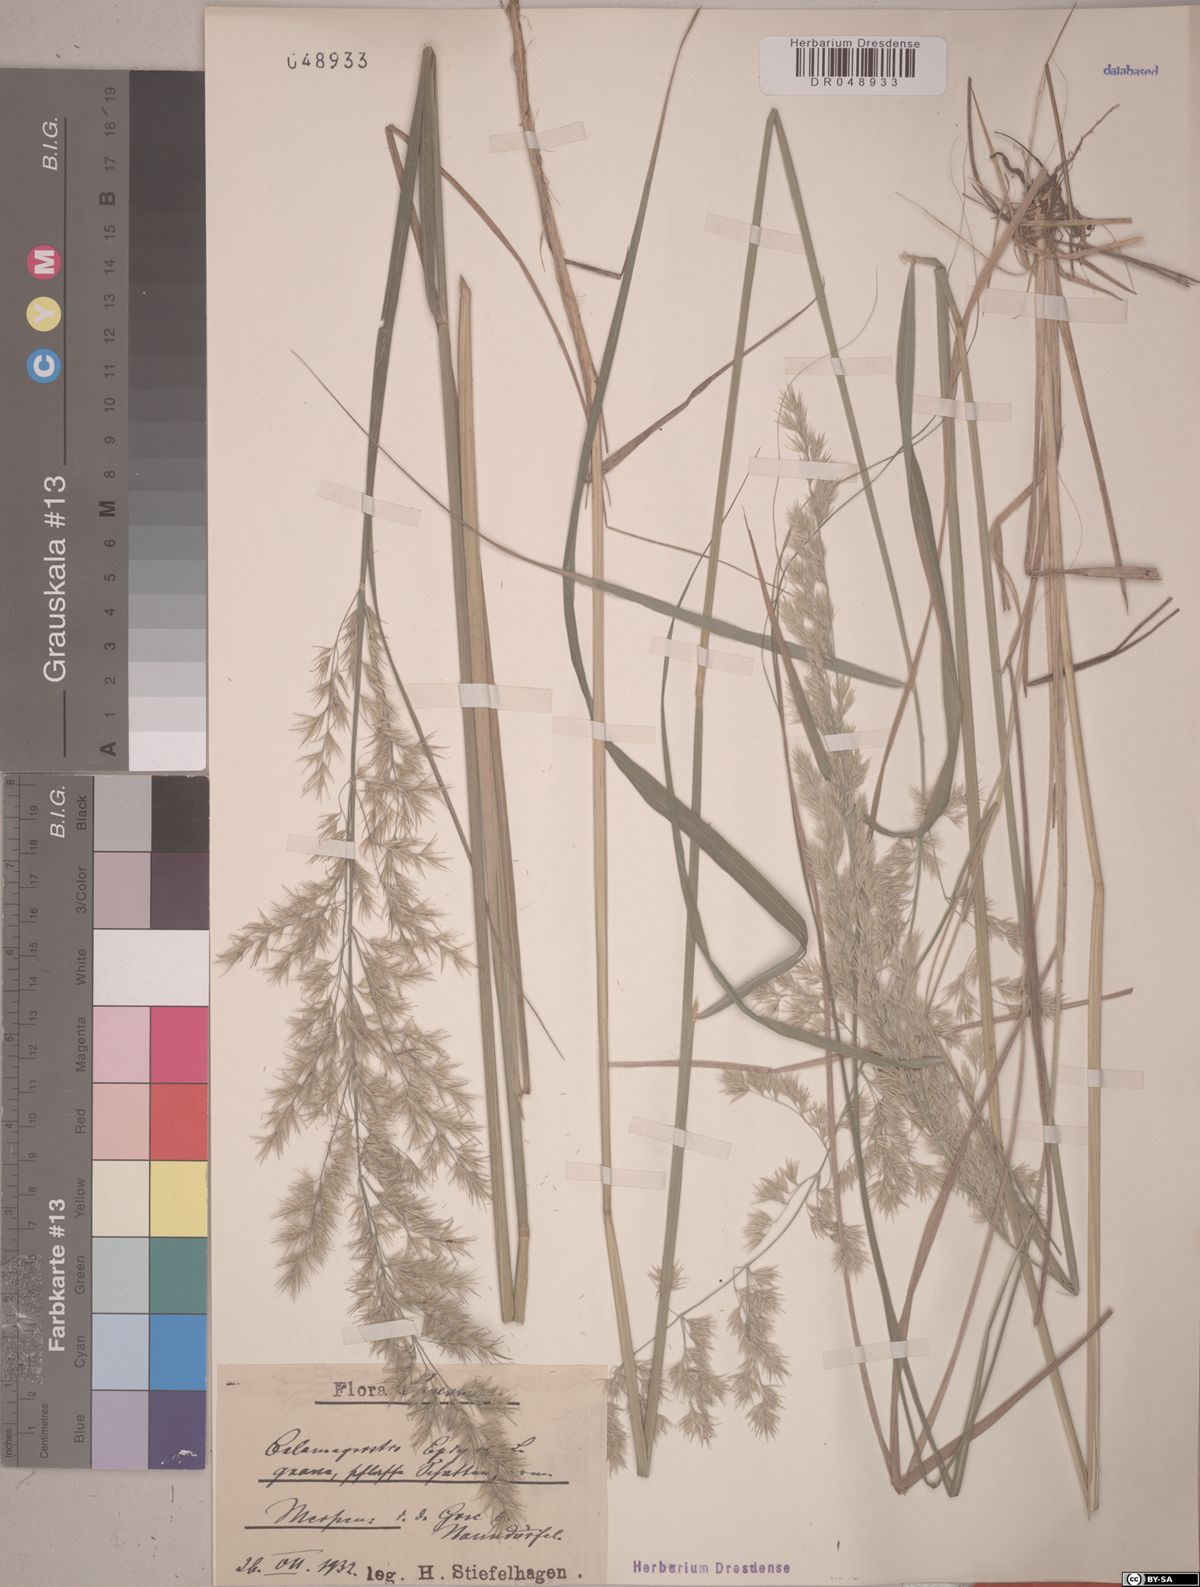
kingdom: Plantae
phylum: Tracheophyta
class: Liliopsida
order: Poales
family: Poaceae
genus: Calamagrostis
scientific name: Calamagrostis epigejos
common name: Wood small-reed
